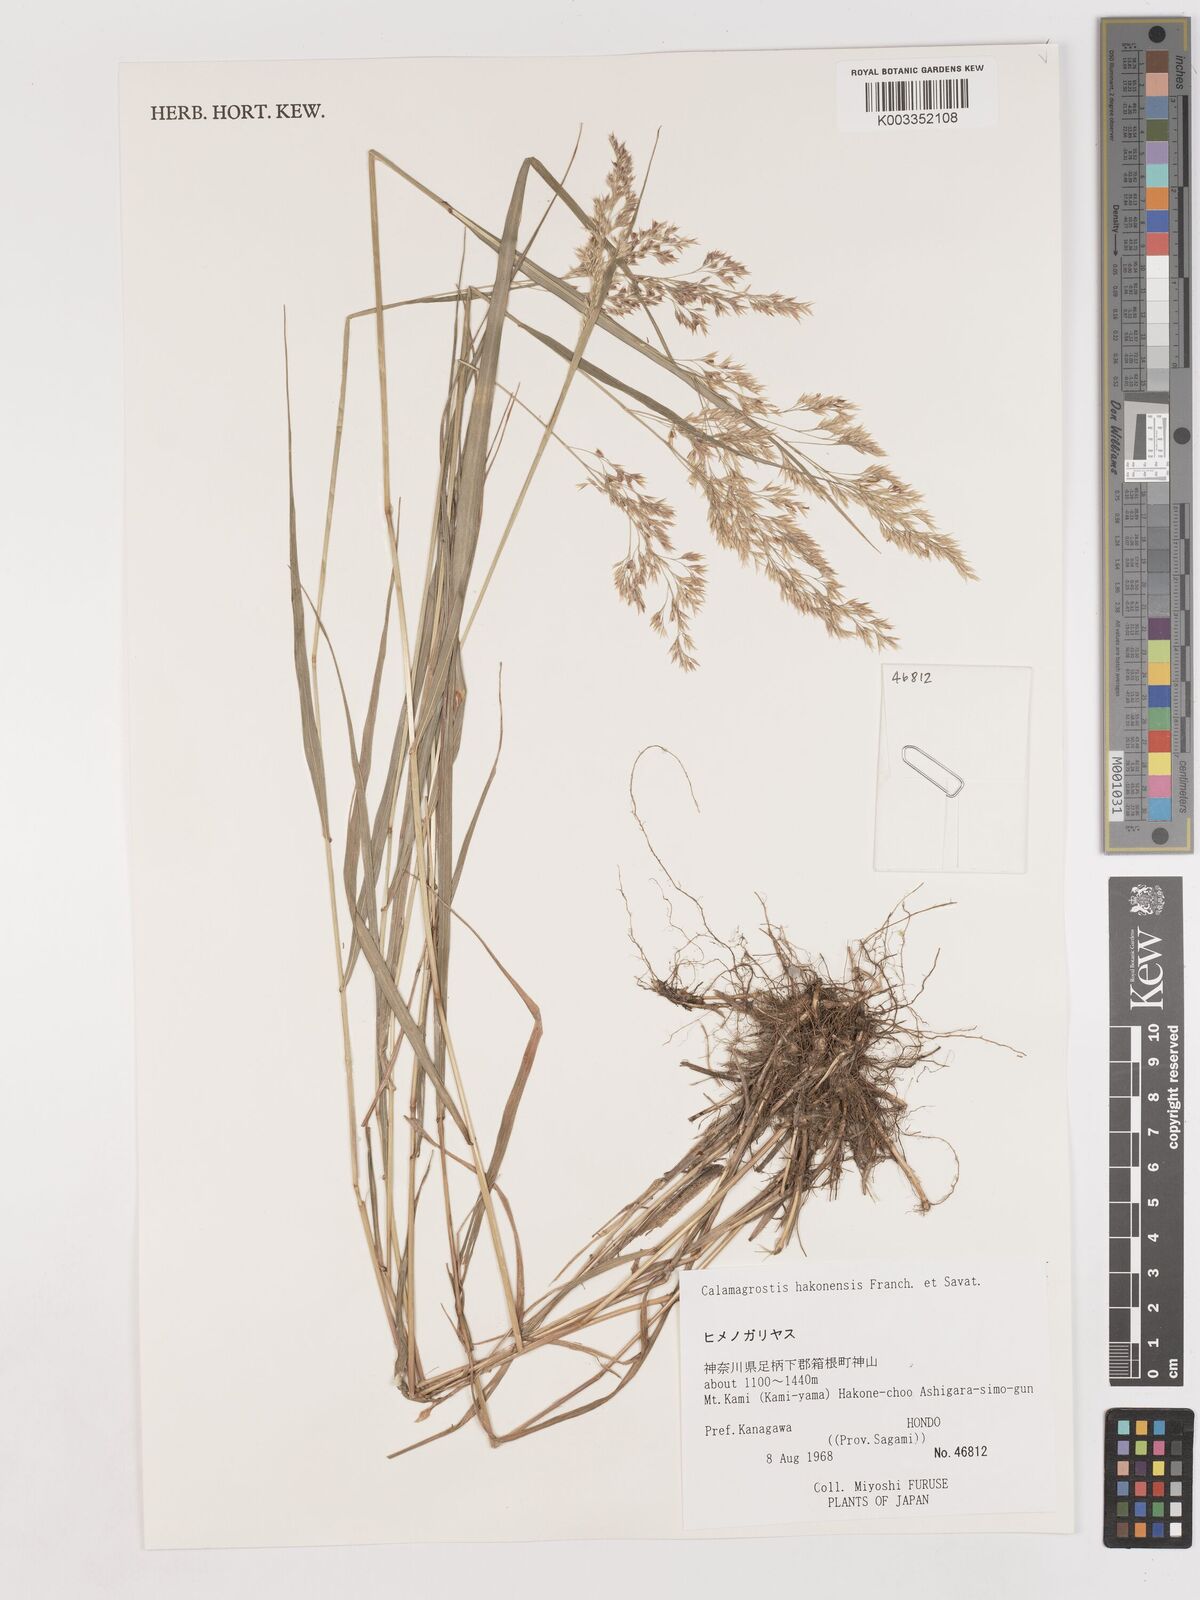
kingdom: Plantae
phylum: Tracheophyta
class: Liliopsida
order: Poales
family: Poaceae
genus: Calamagrostis
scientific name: Calamagrostis hakonensis
